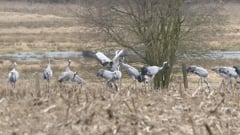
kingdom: Animalia
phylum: Chordata
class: Aves
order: Gruiformes
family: Gruidae
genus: Grus
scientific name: Grus grus
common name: Common crane
